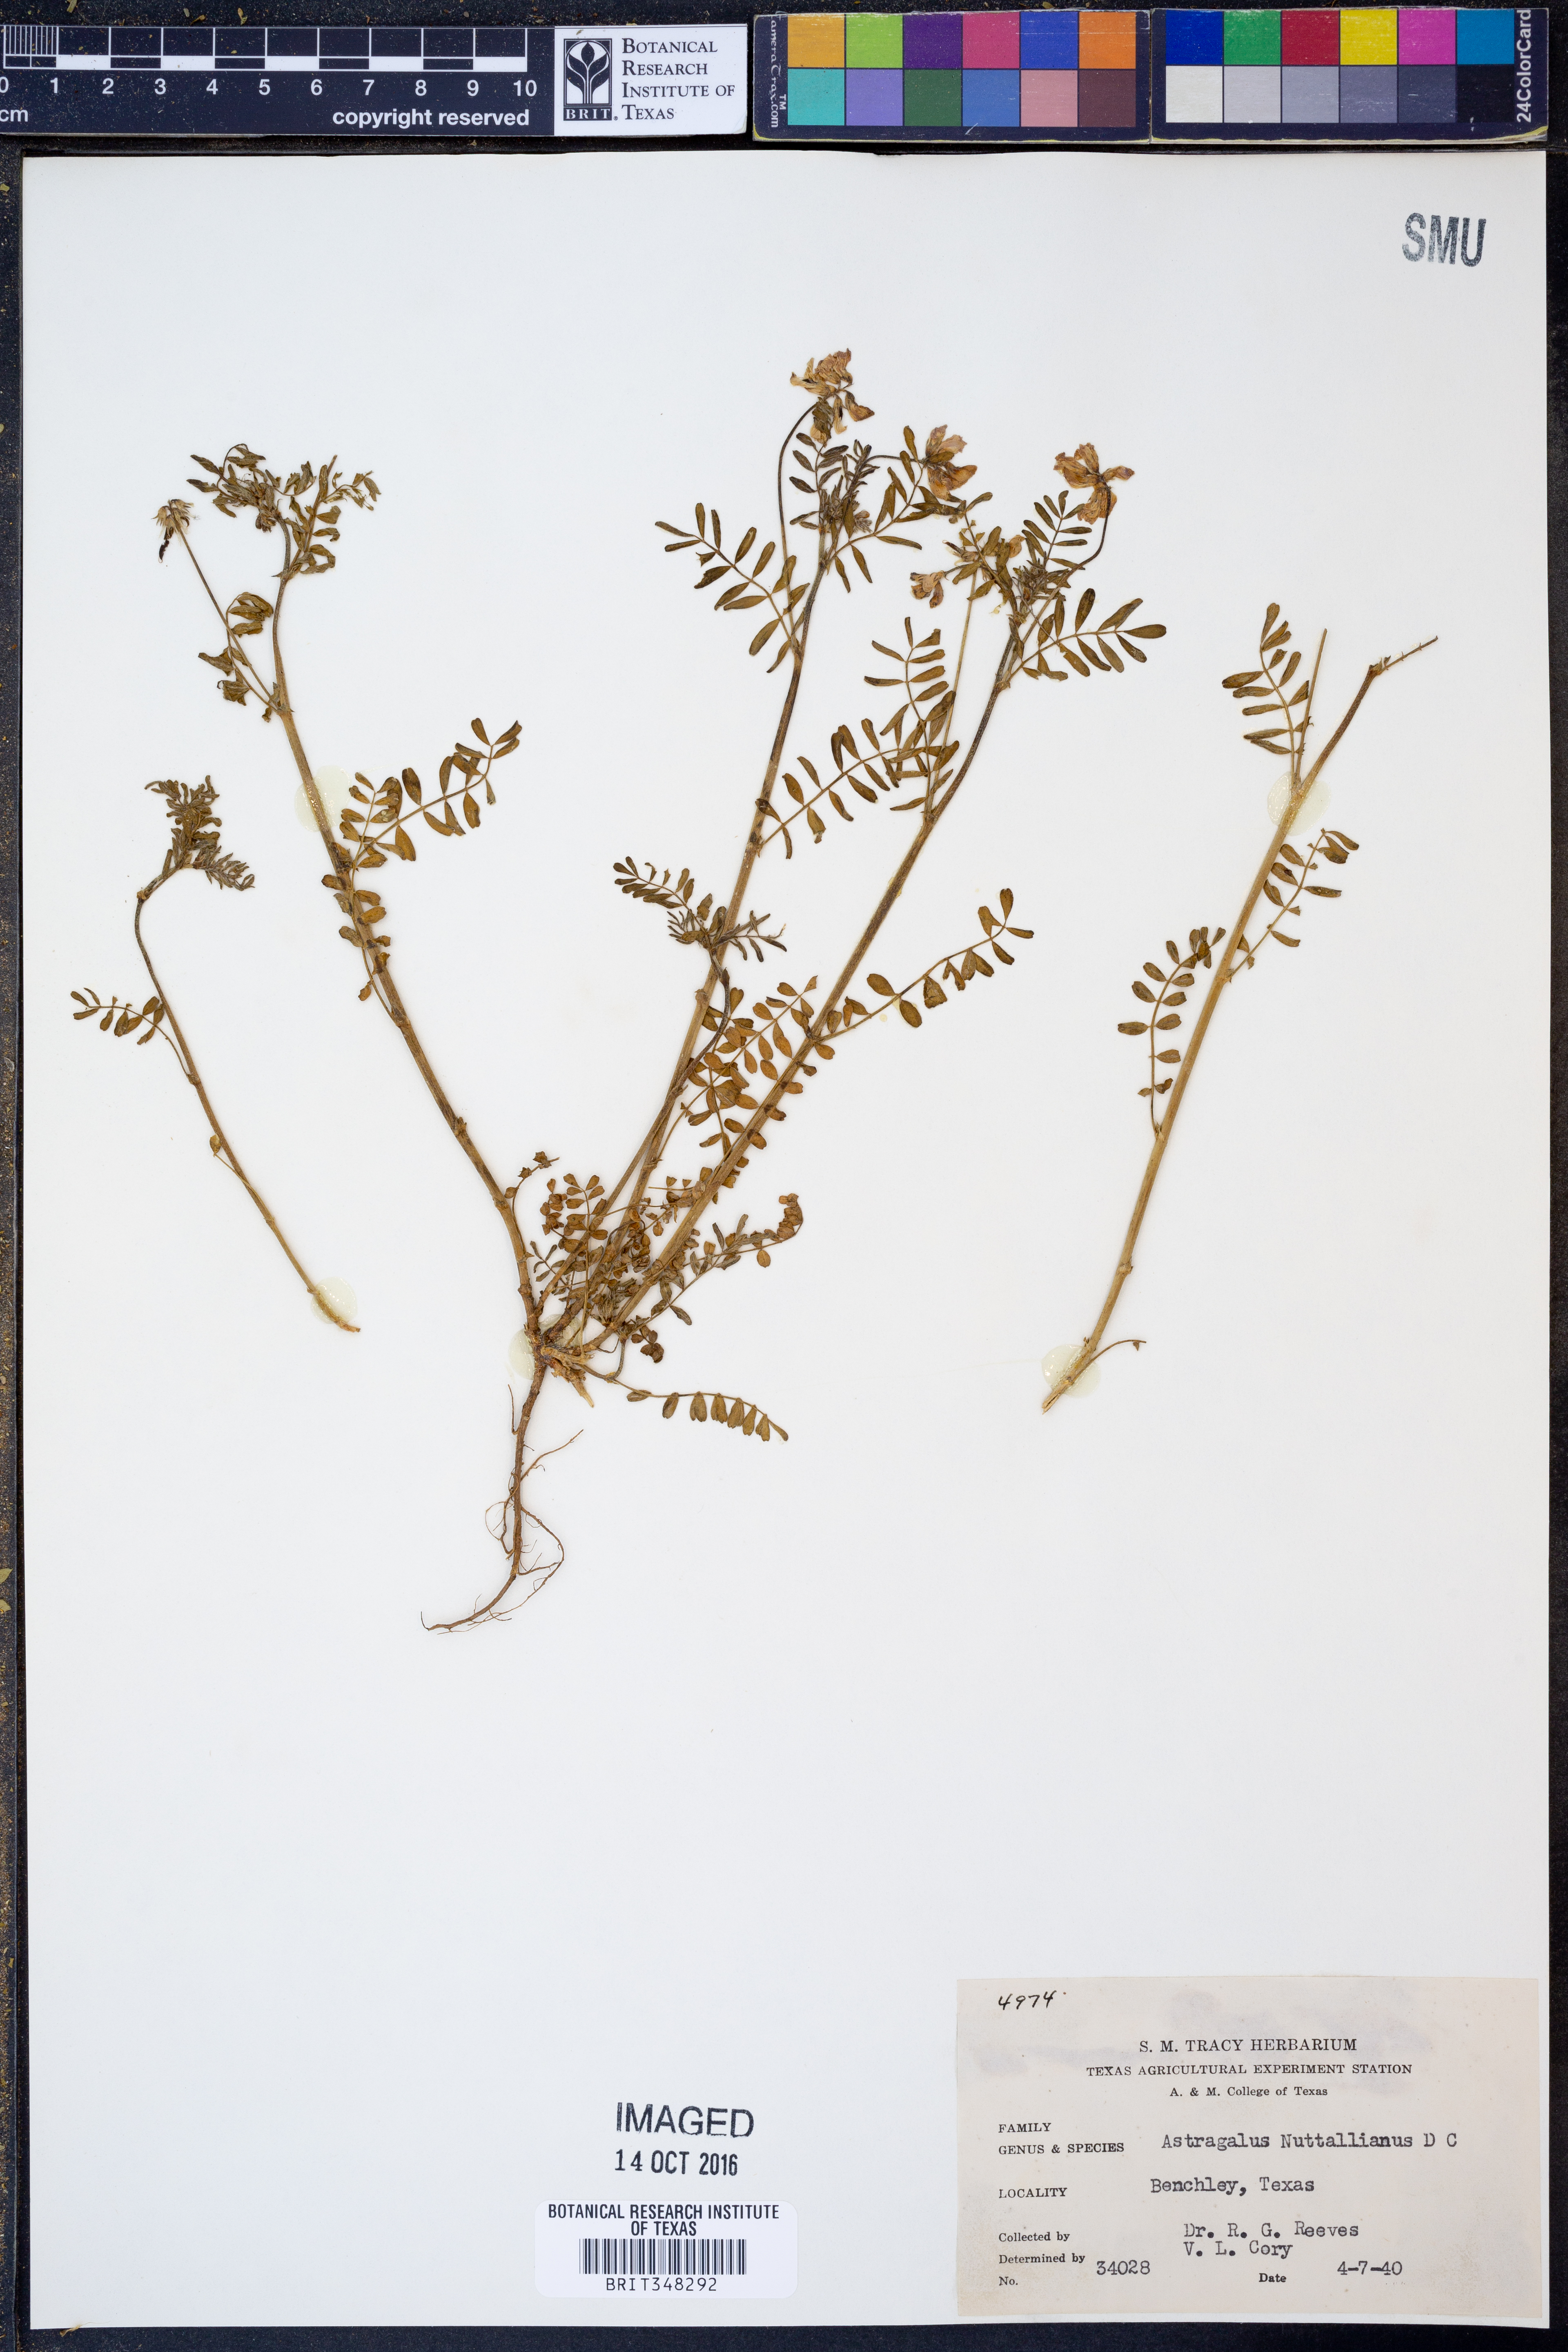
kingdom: Plantae
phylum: Tracheophyta
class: Magnoliopsida
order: Fabales
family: Fabaceae
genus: Astragalus
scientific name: Astragalus nuttallianus
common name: Smallflowered milkvetch
